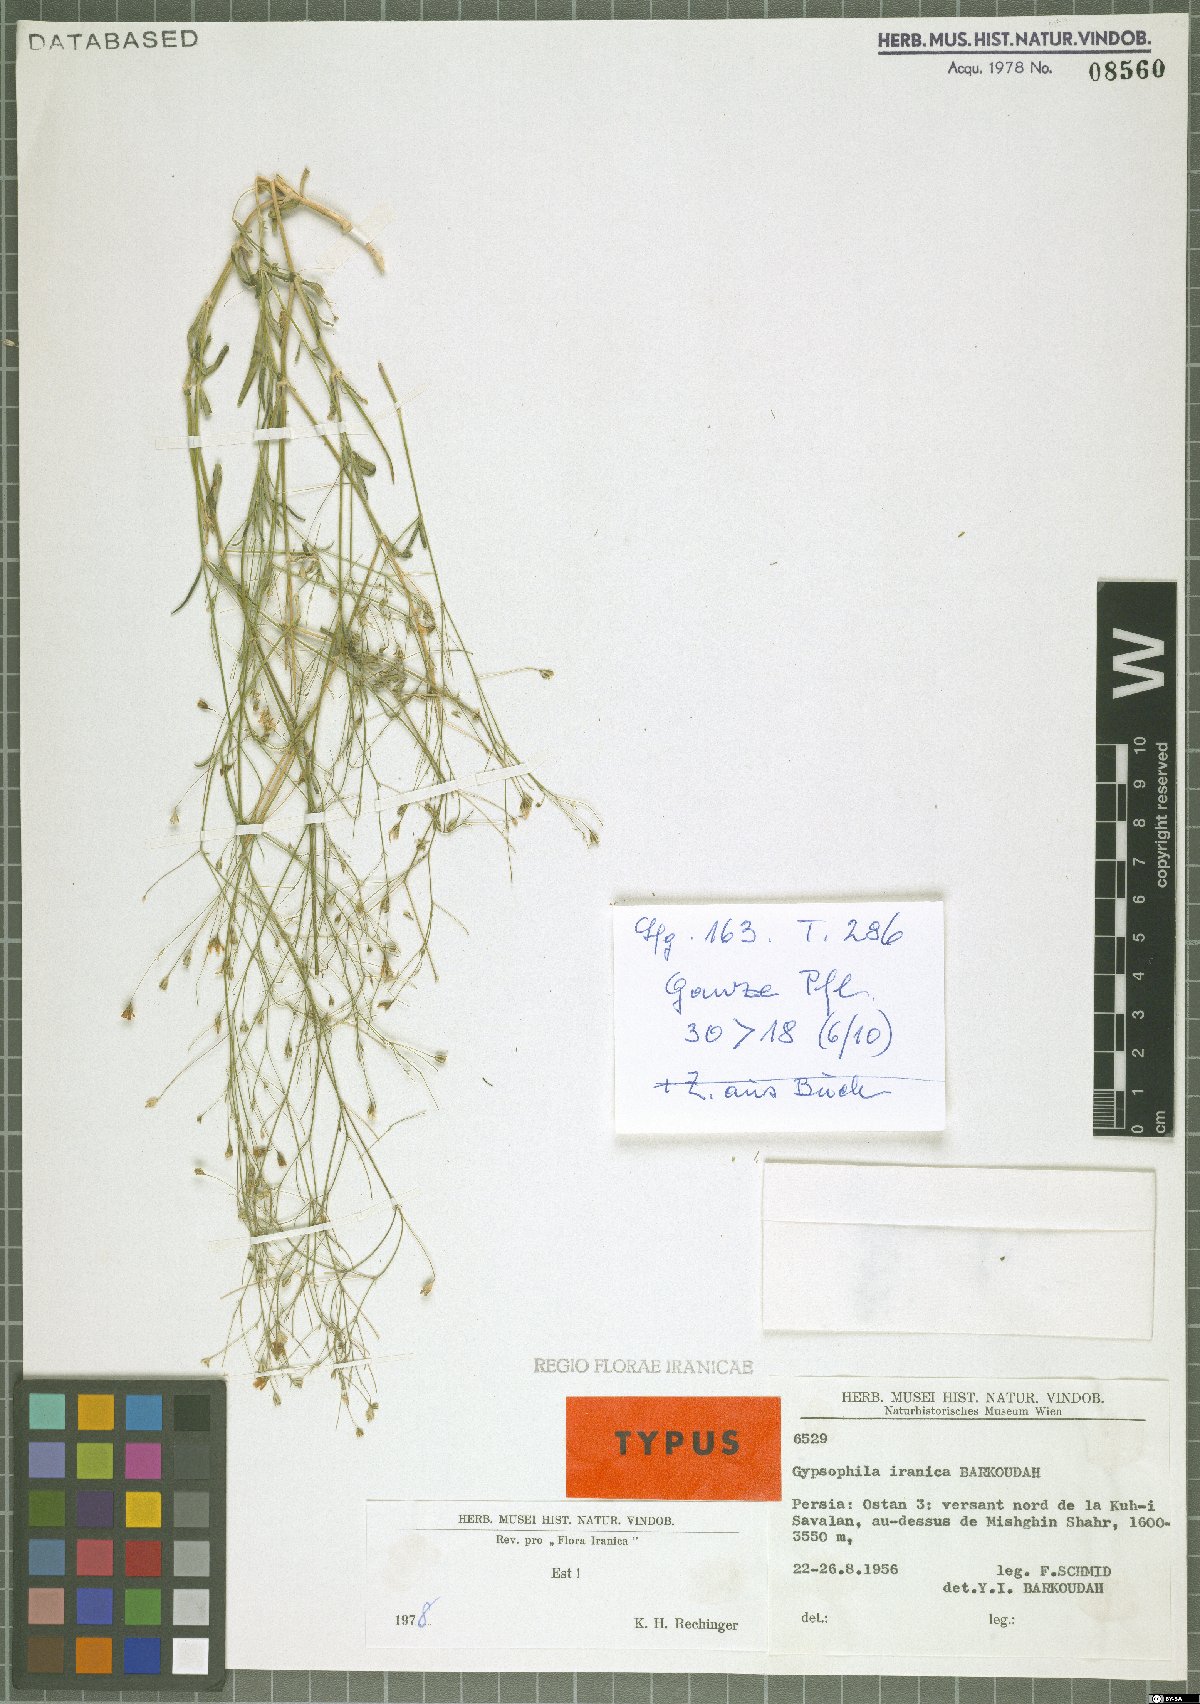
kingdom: Plantae
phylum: Tracheophyta
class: Magnoliopsida
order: Caryophyllales
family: Caryophyllaceae
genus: Gypsophila
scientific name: Gypsophila iranica
